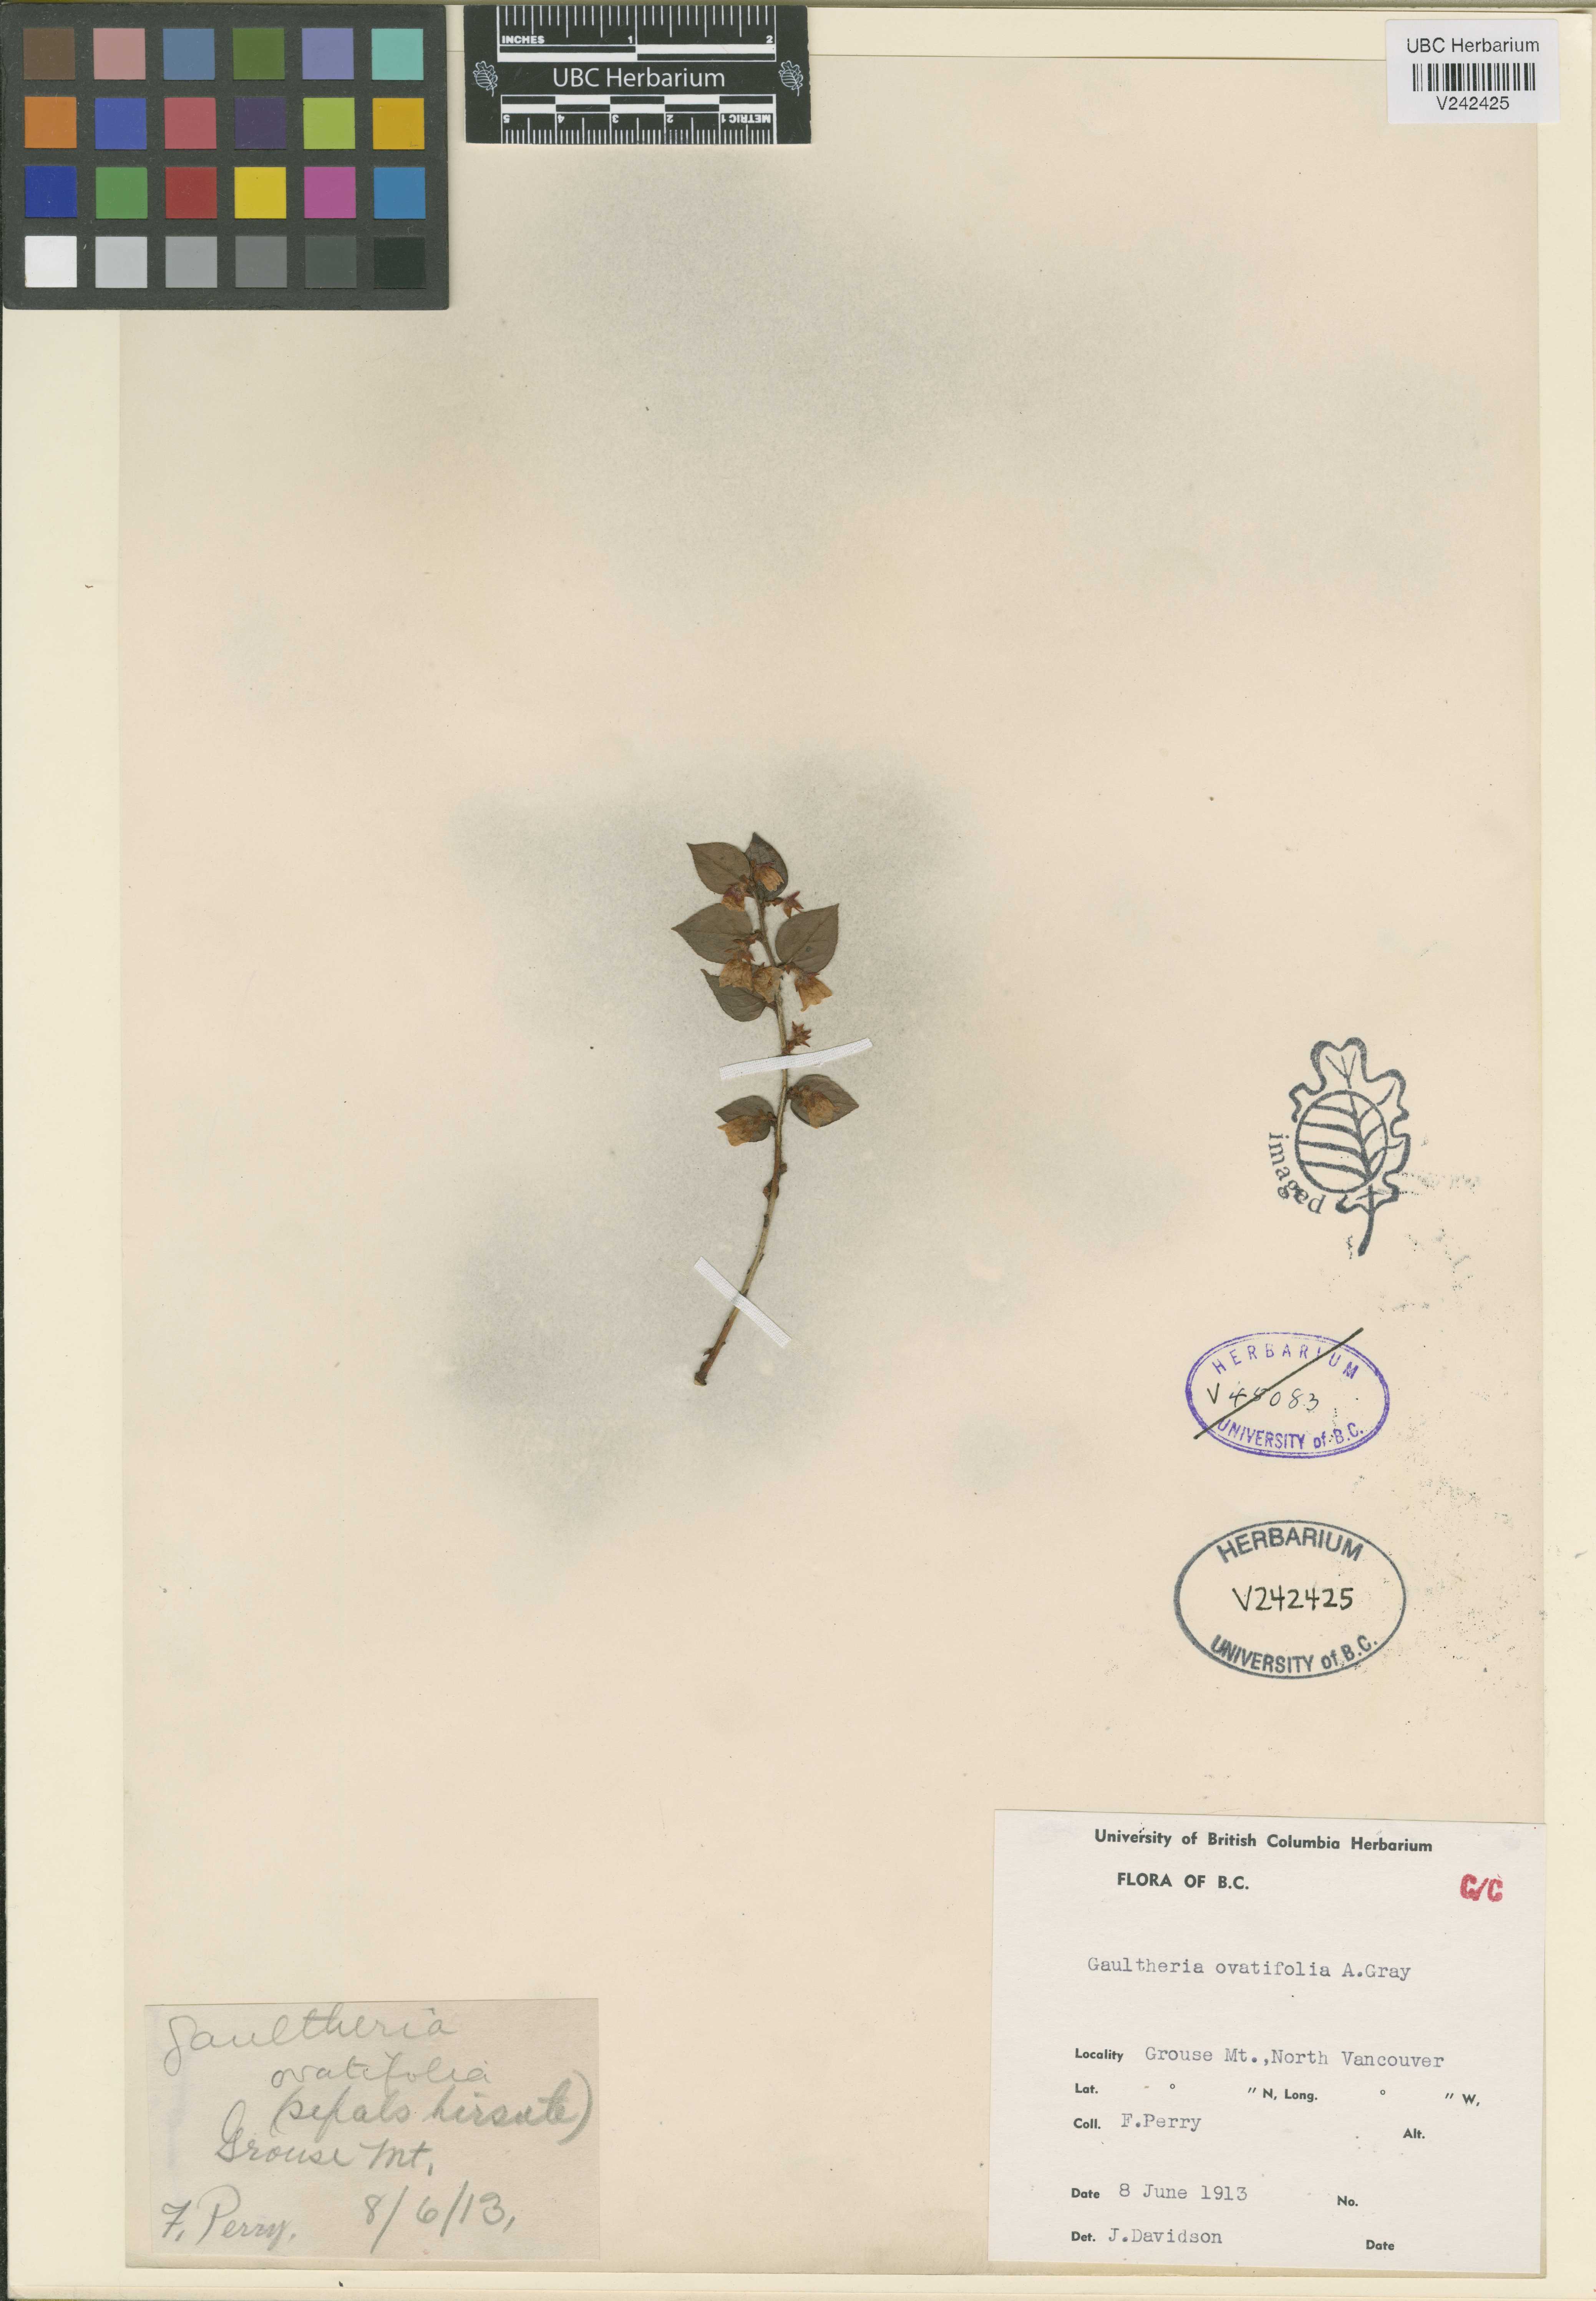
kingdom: Plantae
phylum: Tracheophyta
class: Magnoliopsida
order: Ericales
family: Ericaceae
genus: Gaultheria
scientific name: Gaultheria ovatifolia
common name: Oregon wintergreen
